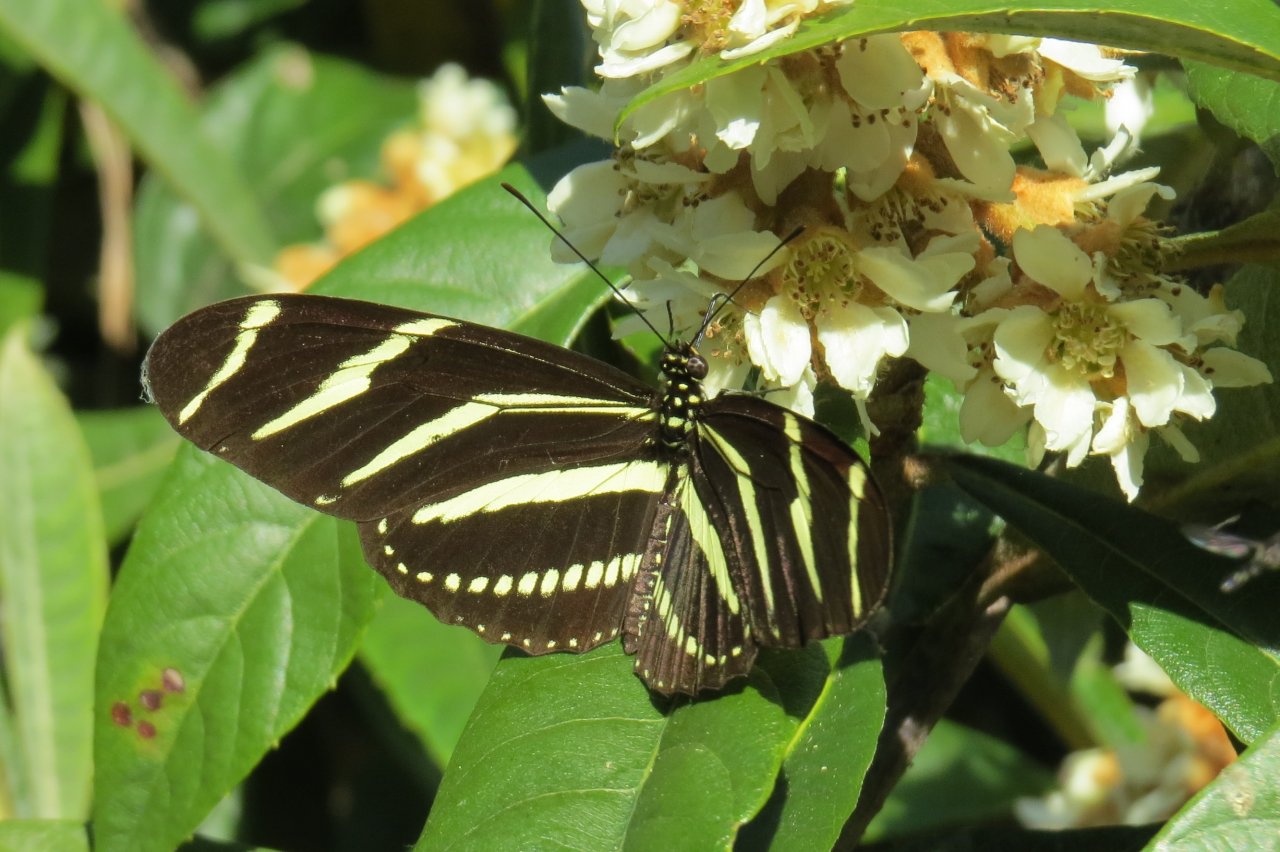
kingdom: Animalia
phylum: Arthropoda
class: Insecta
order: Lepidoptera
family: Nymphalidae
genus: Heliconius
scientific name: Heliconius charithonia
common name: Zebra Longwing
